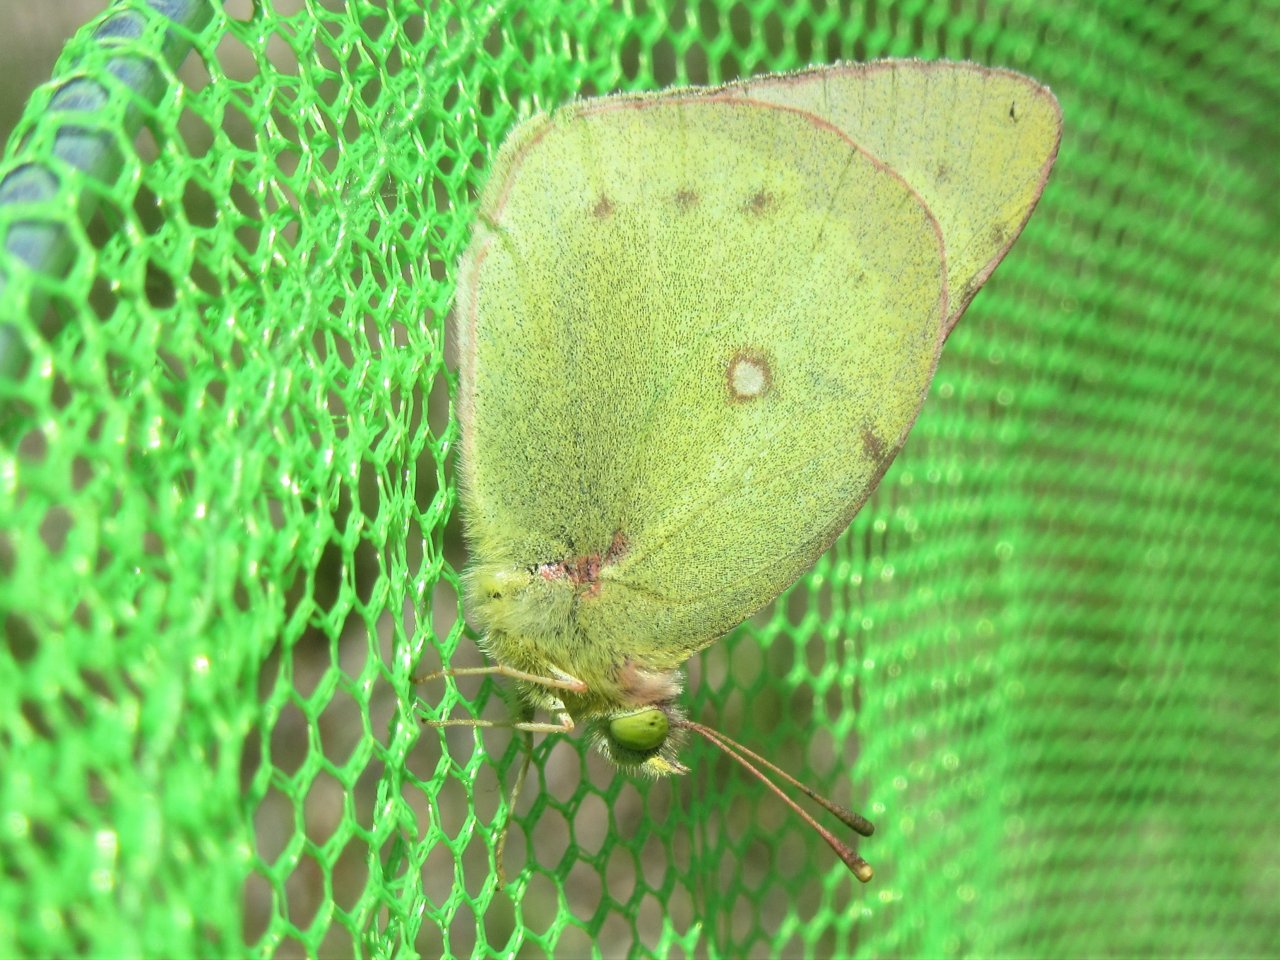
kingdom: Animalia
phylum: Arthropoda
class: Insecta
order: Lepidoptera
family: Pieridae
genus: Colias
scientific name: Colias philodice
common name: Clouded Sulphur
